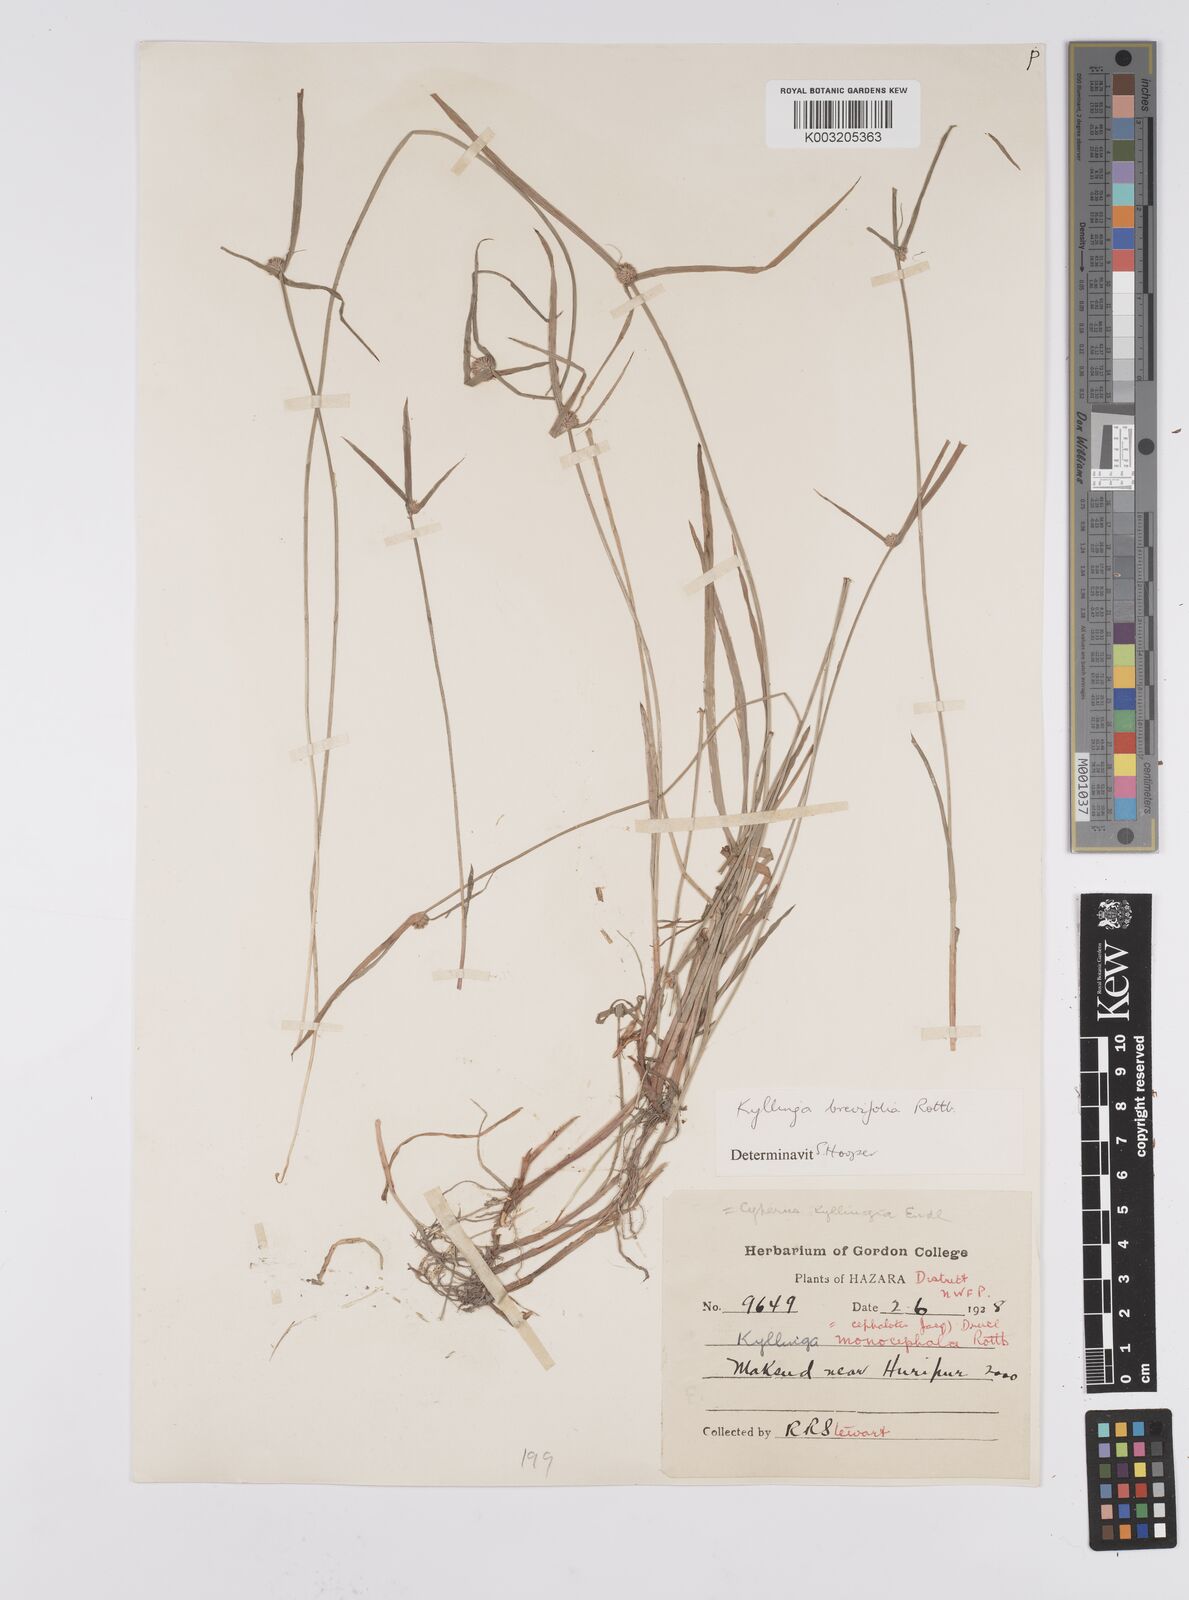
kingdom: Plantae
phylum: Tracheophyta
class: Liliopsida
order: Poales
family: Cyperaceae
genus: Cyperus
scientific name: Cyperus brevifolius
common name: Globe kyllinga
